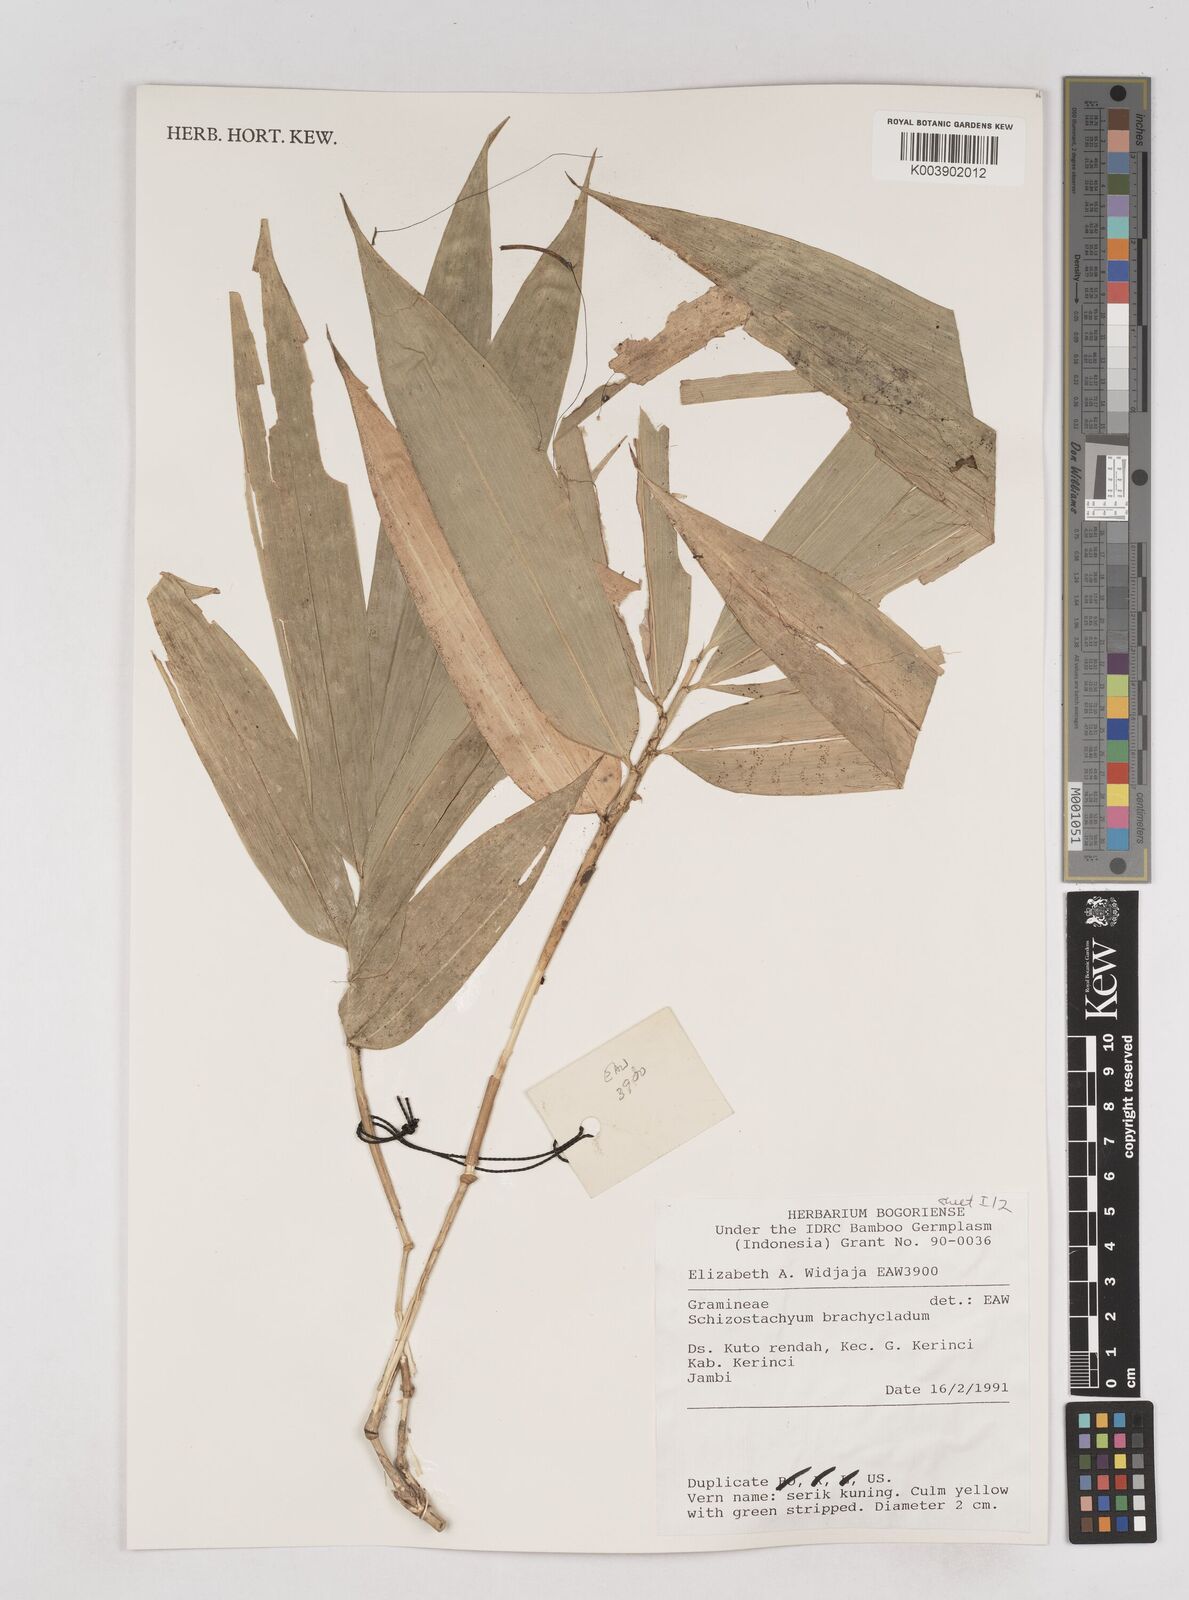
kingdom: Plantae
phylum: Tracheophyta
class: Liliopsida
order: Poales
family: Poaceae
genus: Schizostachyum
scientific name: Schizostachyum brachycladum
